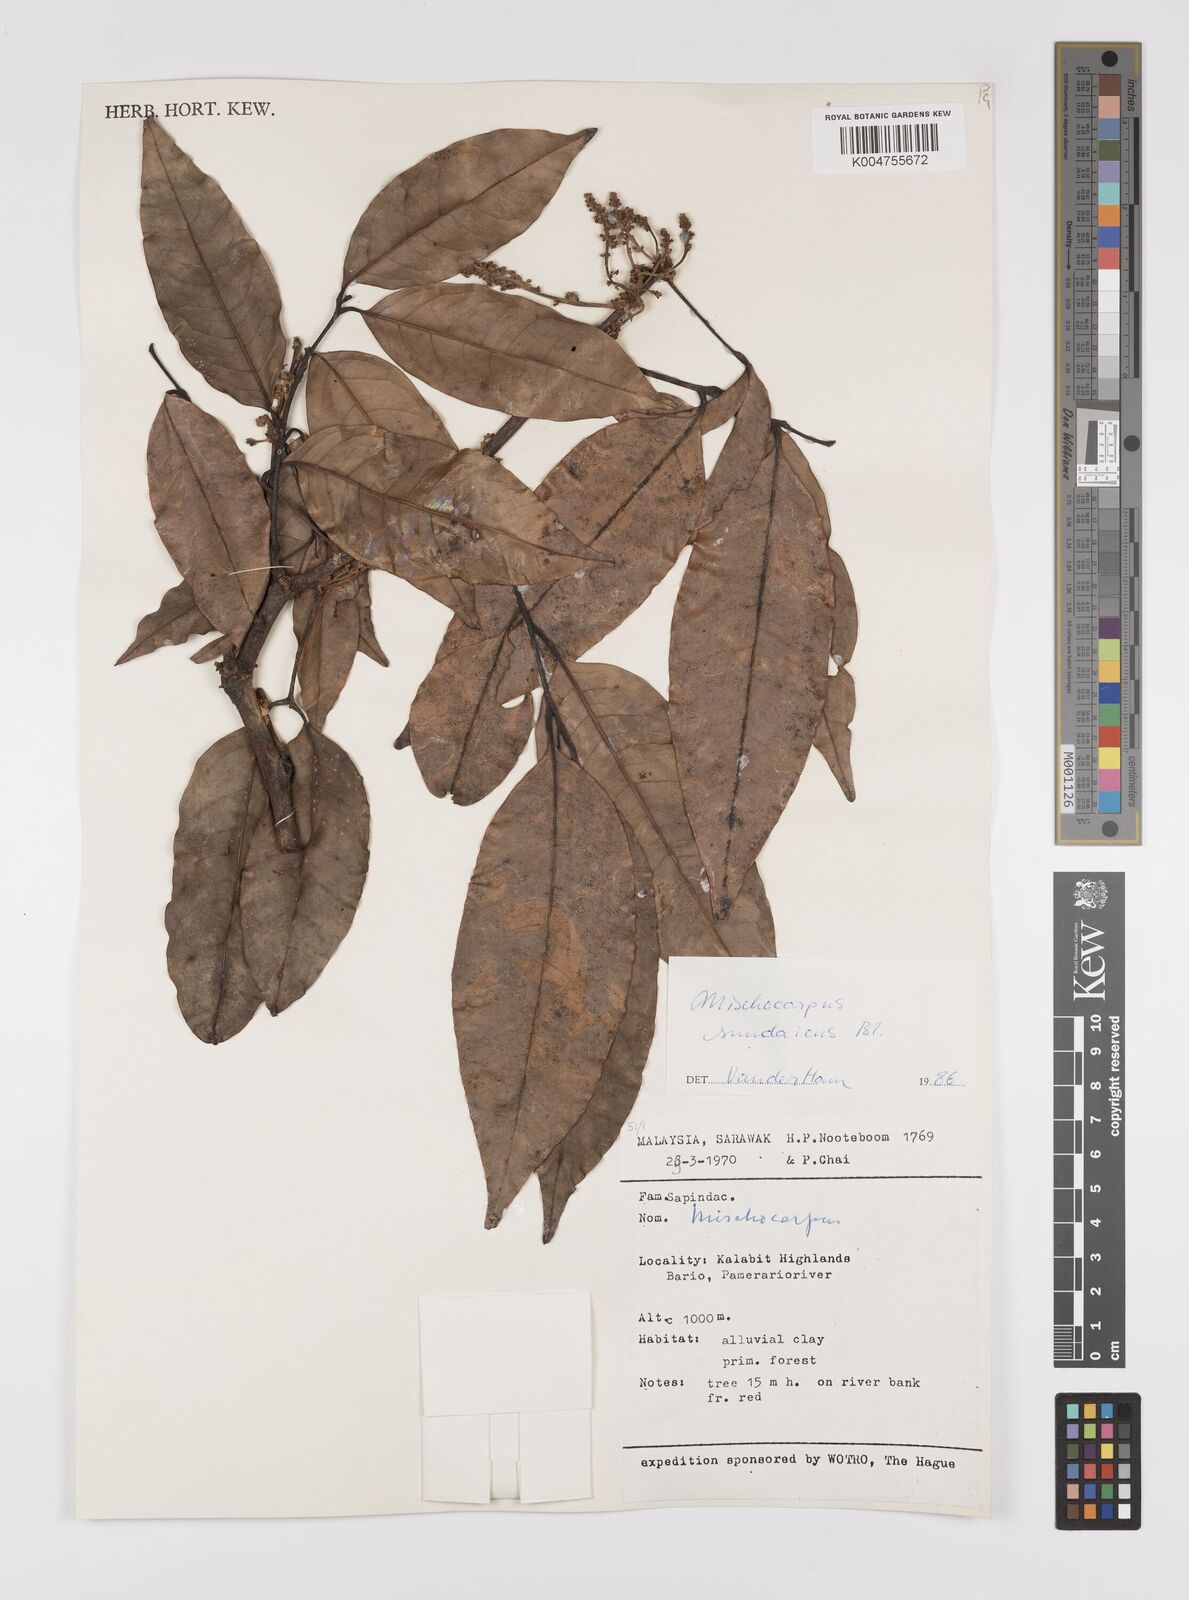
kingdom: Plantae
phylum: Tracheophyta
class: Magnoliopsida
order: Sapindales
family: Sapindaceae
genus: Mischocarpus
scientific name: Mischocarpus sundaicus
